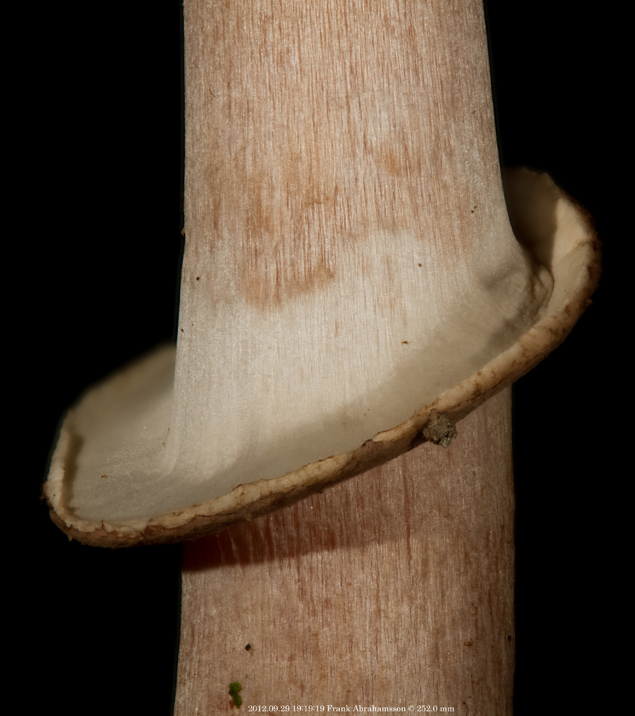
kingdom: Fungi
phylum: Basidiomycota
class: Agaricomycetes
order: Agaricales
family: Agaricaceae
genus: Agaricus
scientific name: Agaricus impudicus
